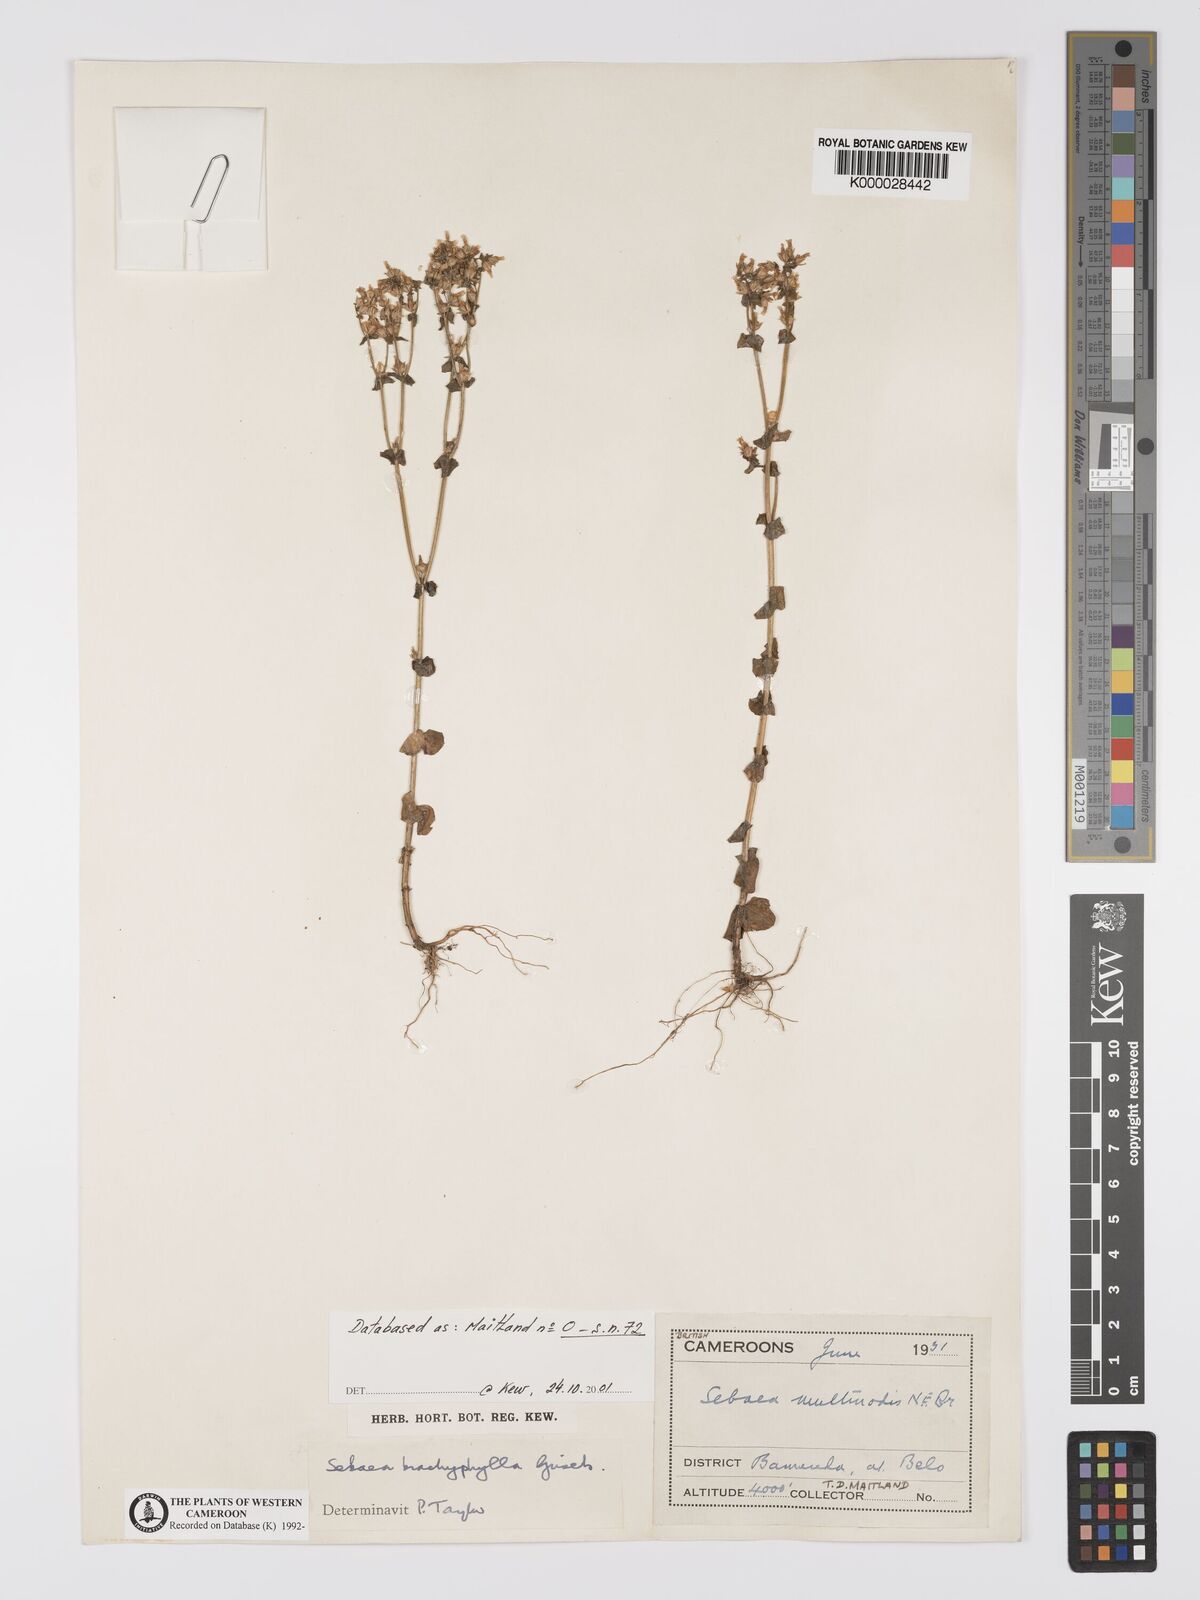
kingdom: Plantae
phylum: Tracheophyta
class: Magnoliopsida
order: Gentianales
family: Gentianaceae
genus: Sebaea
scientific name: Sebaea brachyphylla
